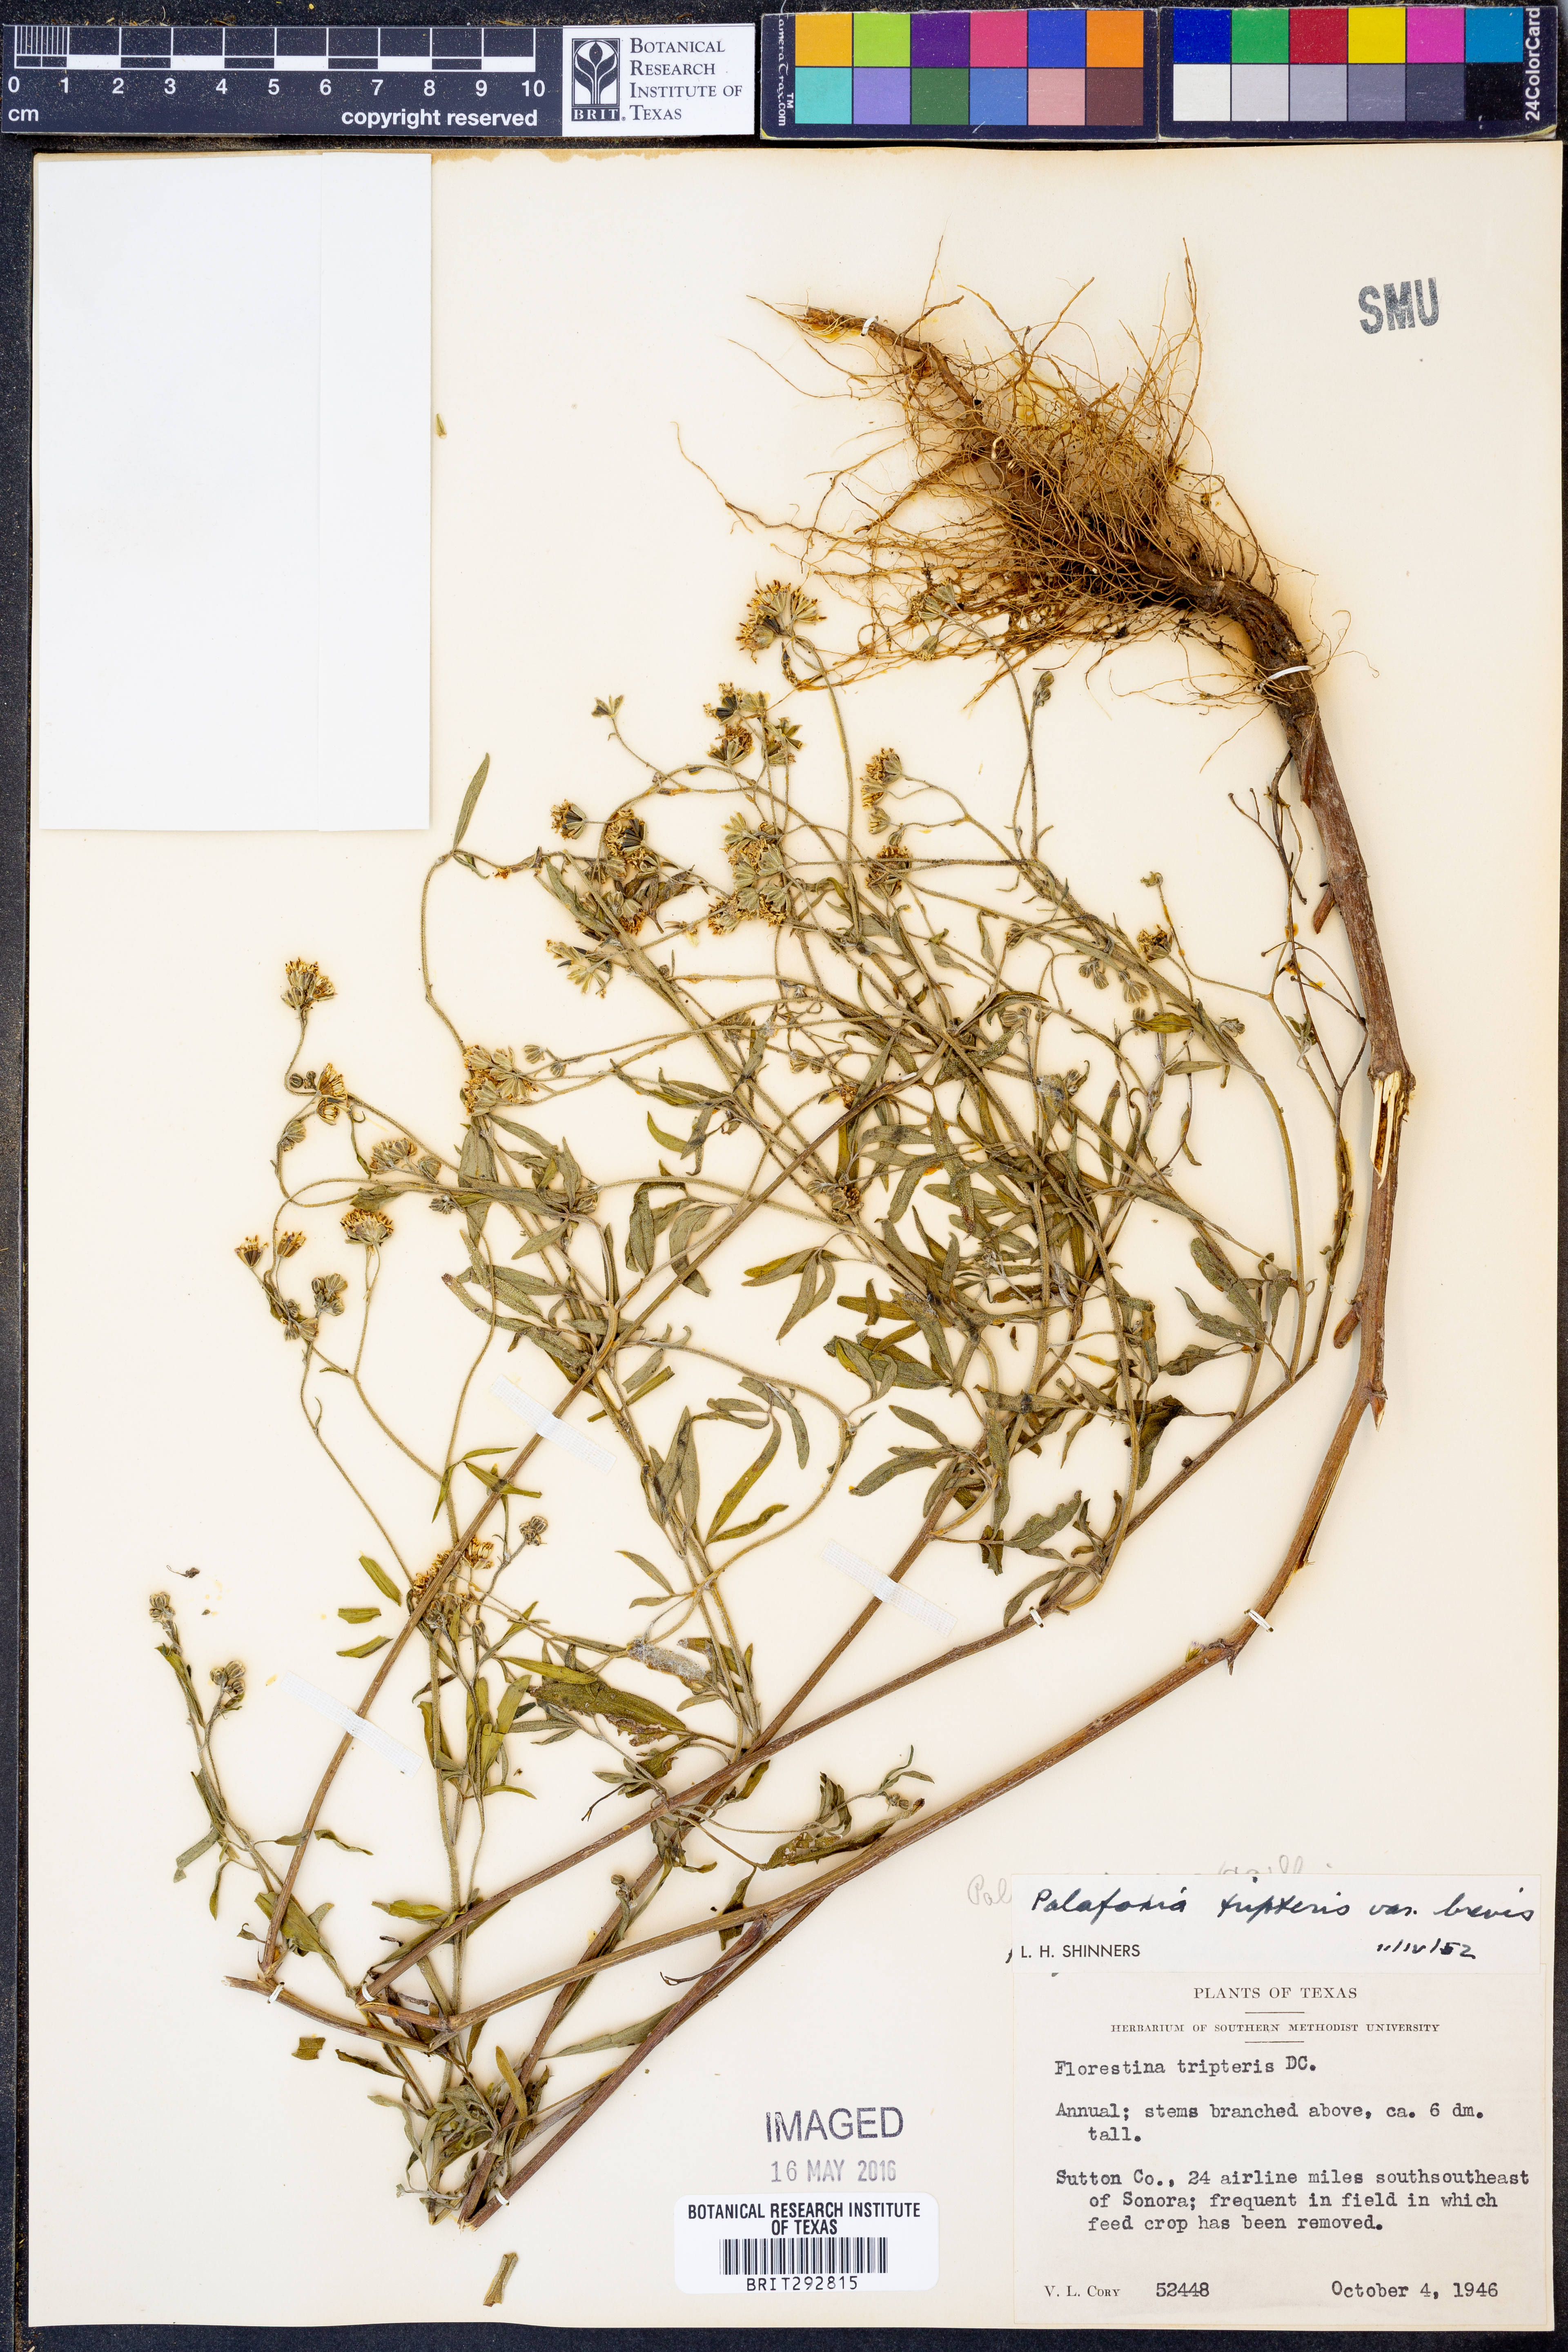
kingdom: Plantae
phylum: Tracheophyta
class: Magnoliopsida
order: Asterales
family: Asteraceae
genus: Florestina
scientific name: Florestina tripteris
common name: Sticky florestina
